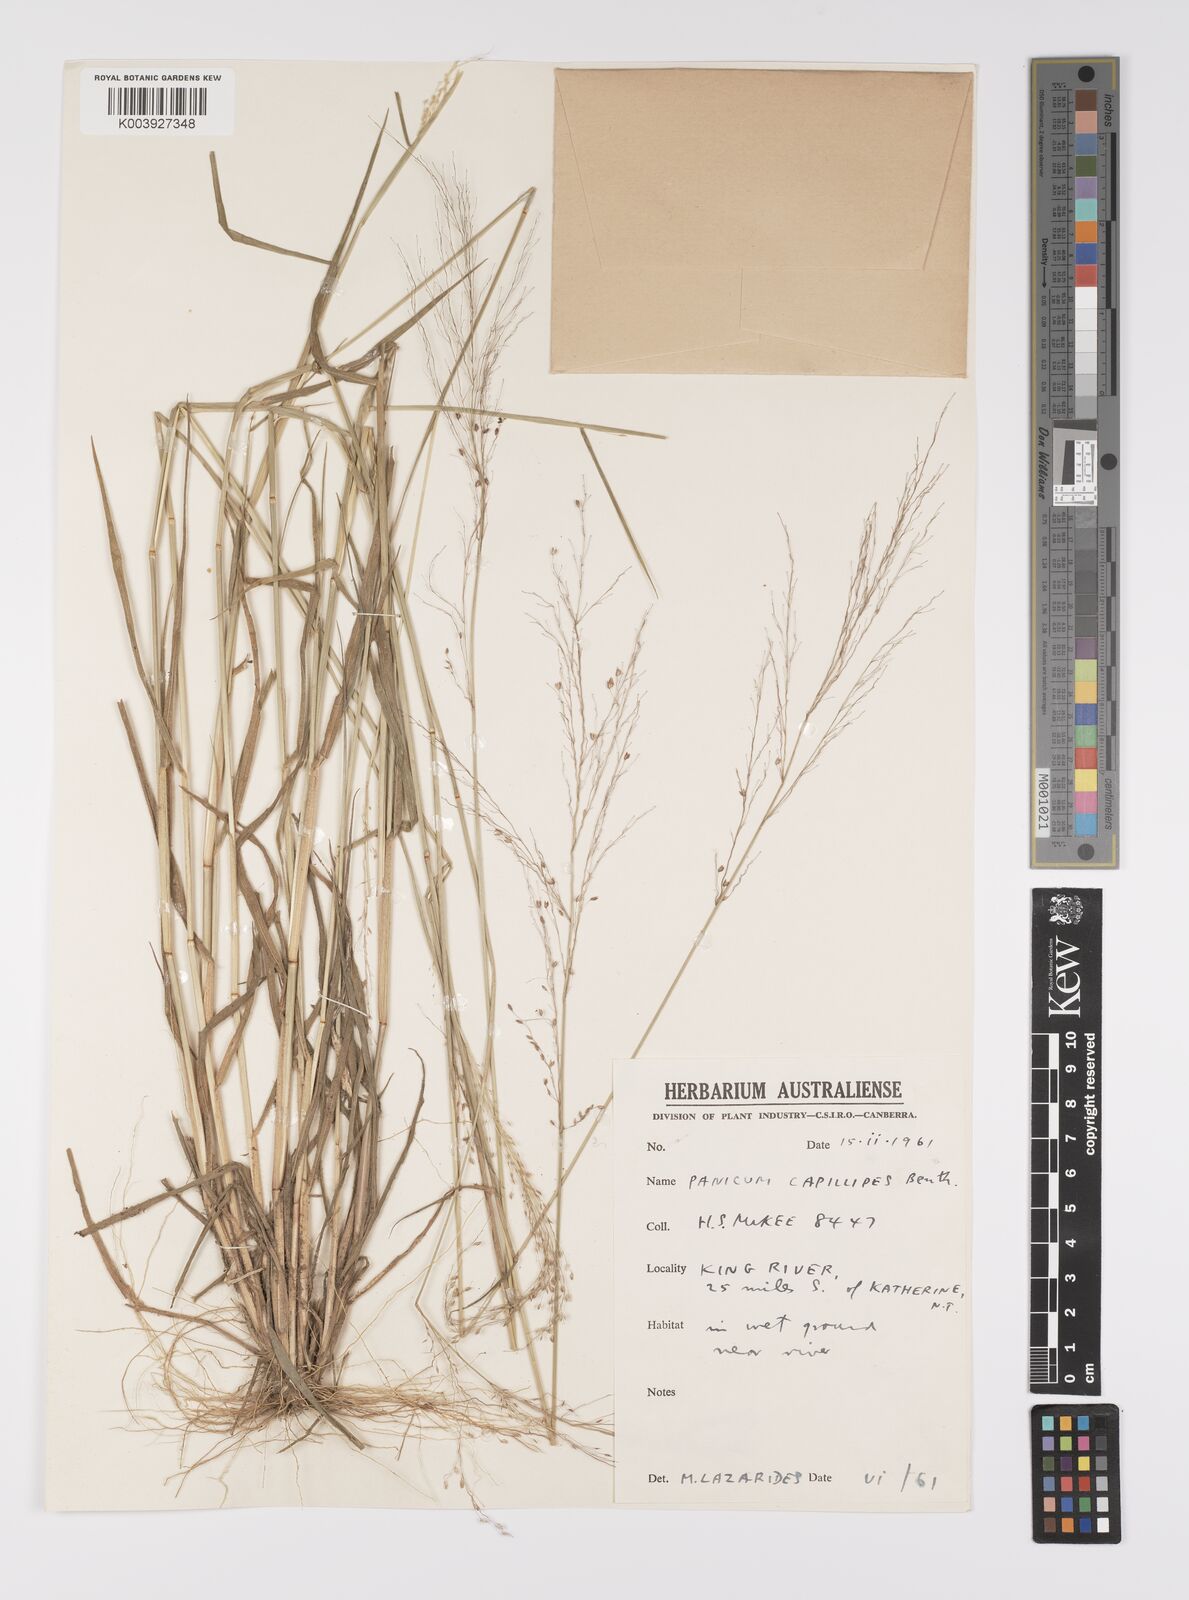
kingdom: Plantae
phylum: Tracheophyta
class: Liliopsida
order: Poales
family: Poaceae
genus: Whiteochloa
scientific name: Whiteochloa capillipes
